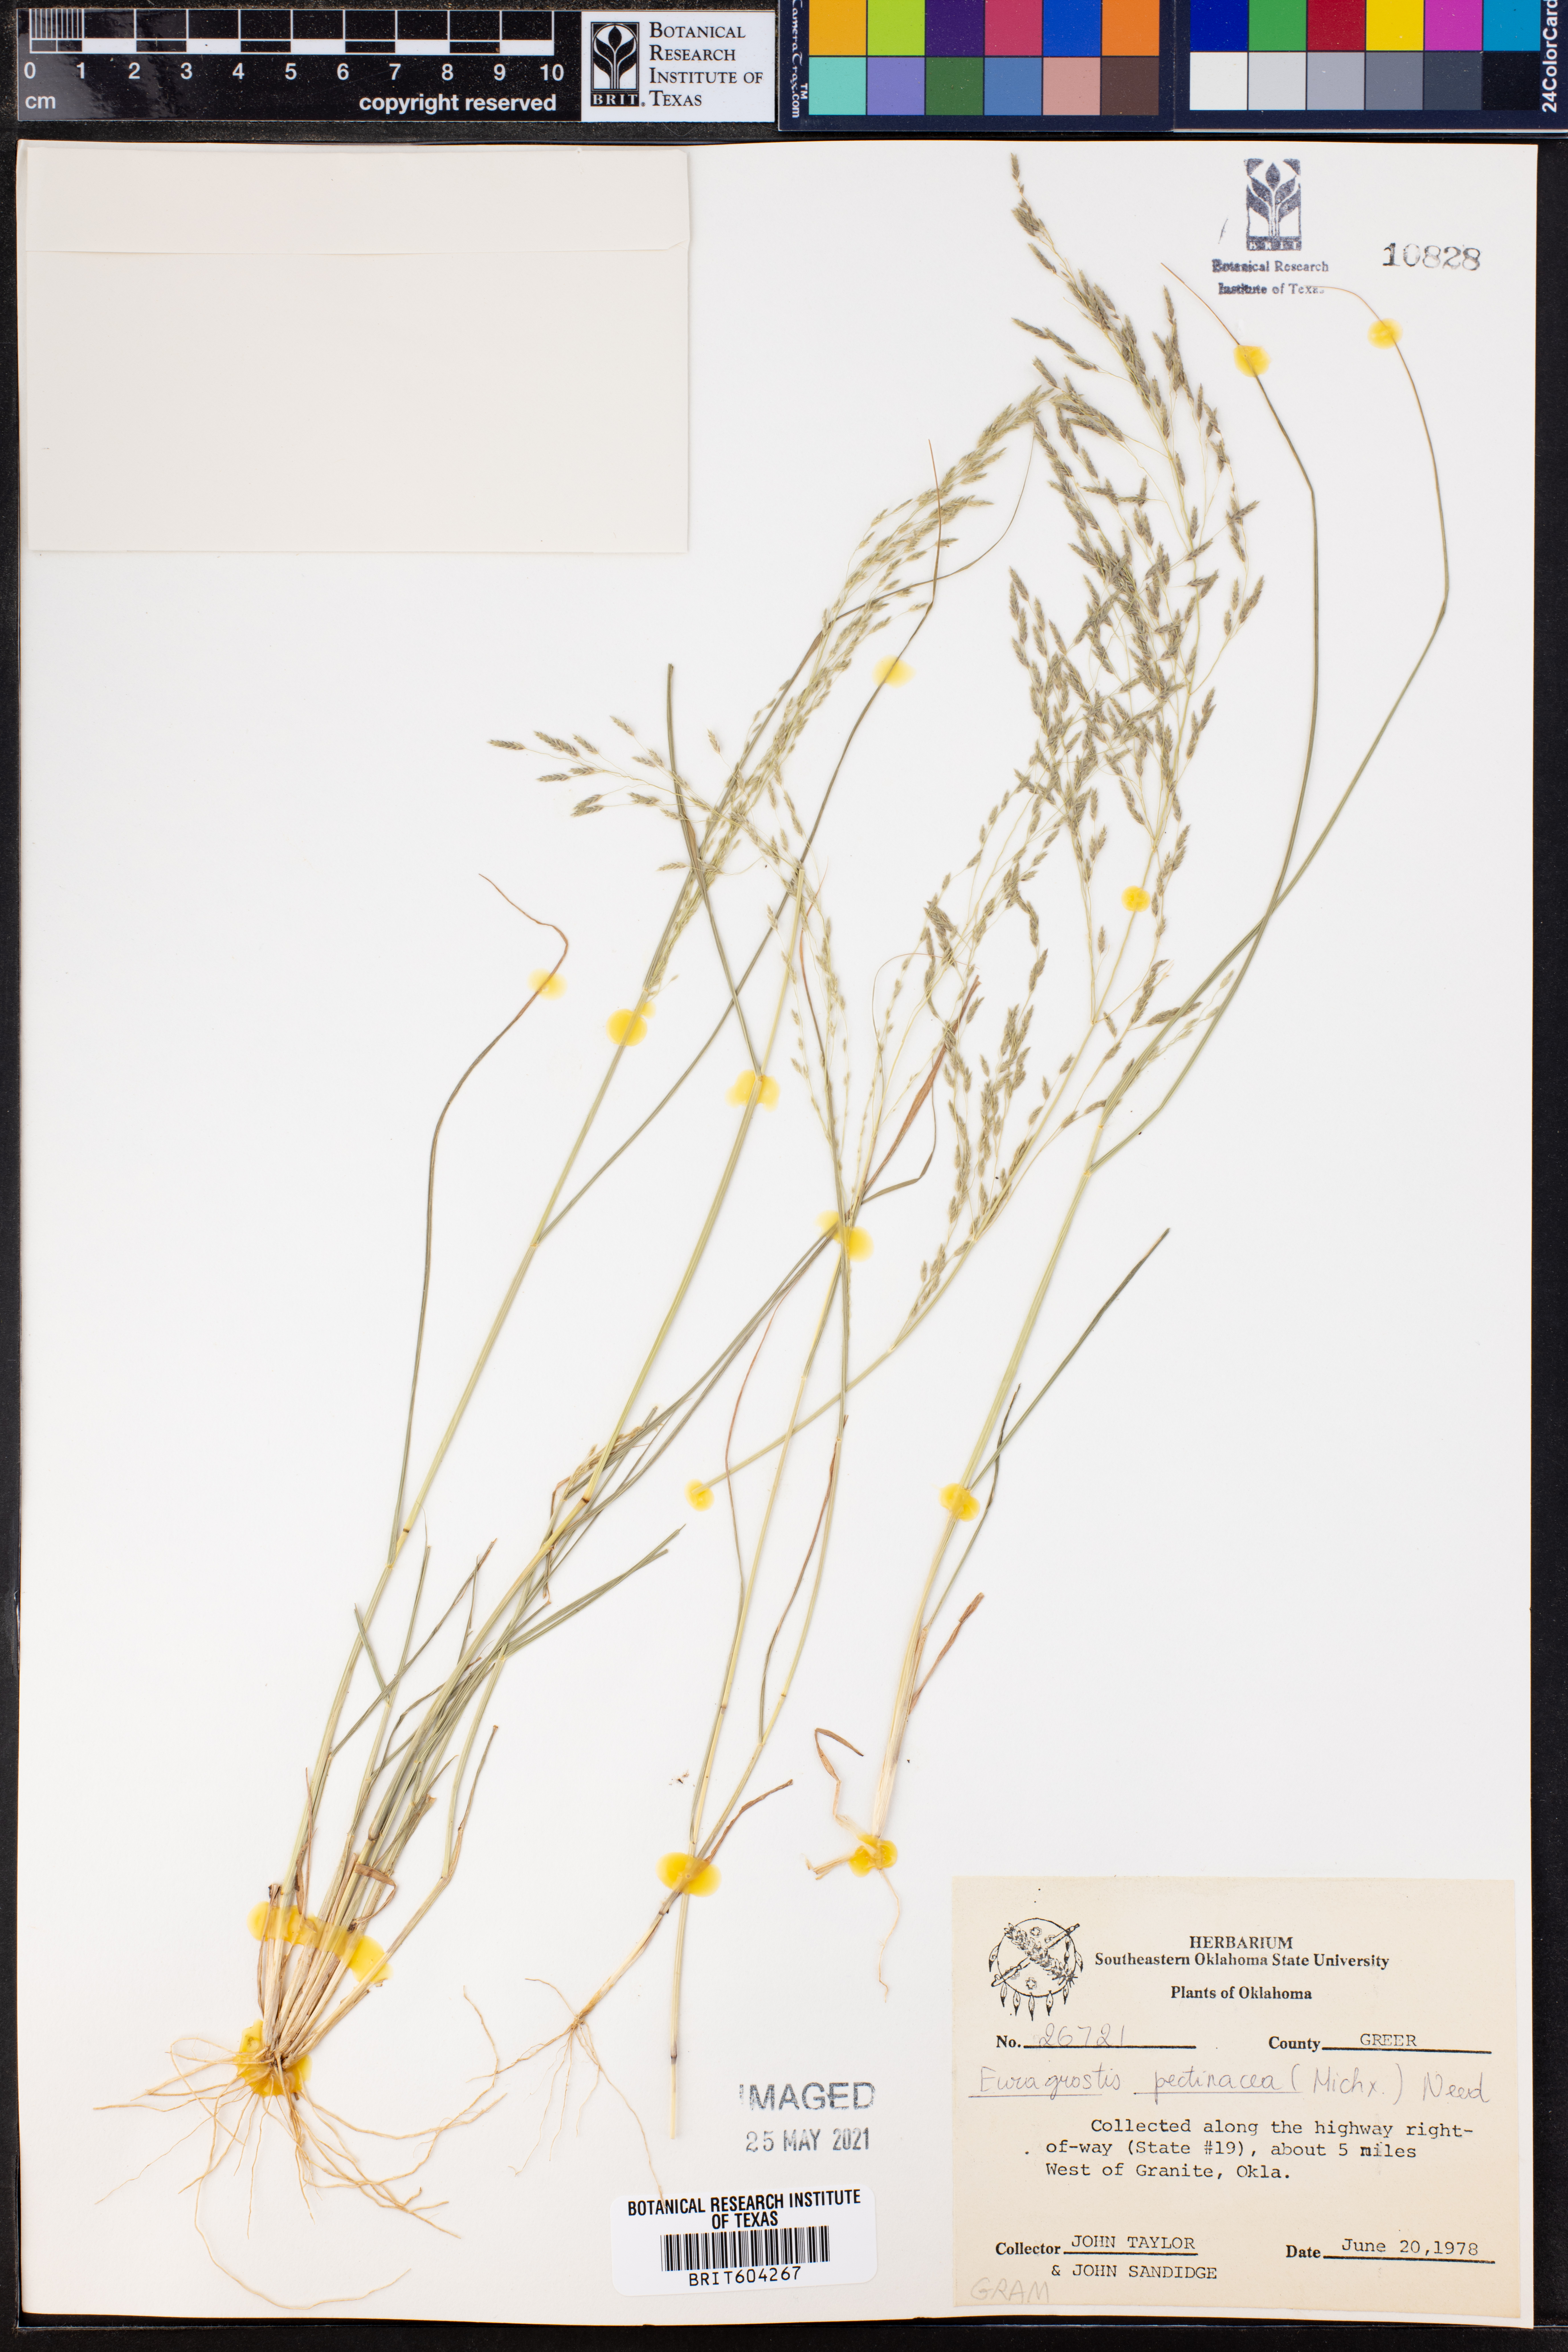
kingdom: Plantae
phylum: Tracheophyta
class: Liliopsida
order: Poales
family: Poaceae
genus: Eragrostis
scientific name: Eragrostis pectinacea
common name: Tufted lovegrass
